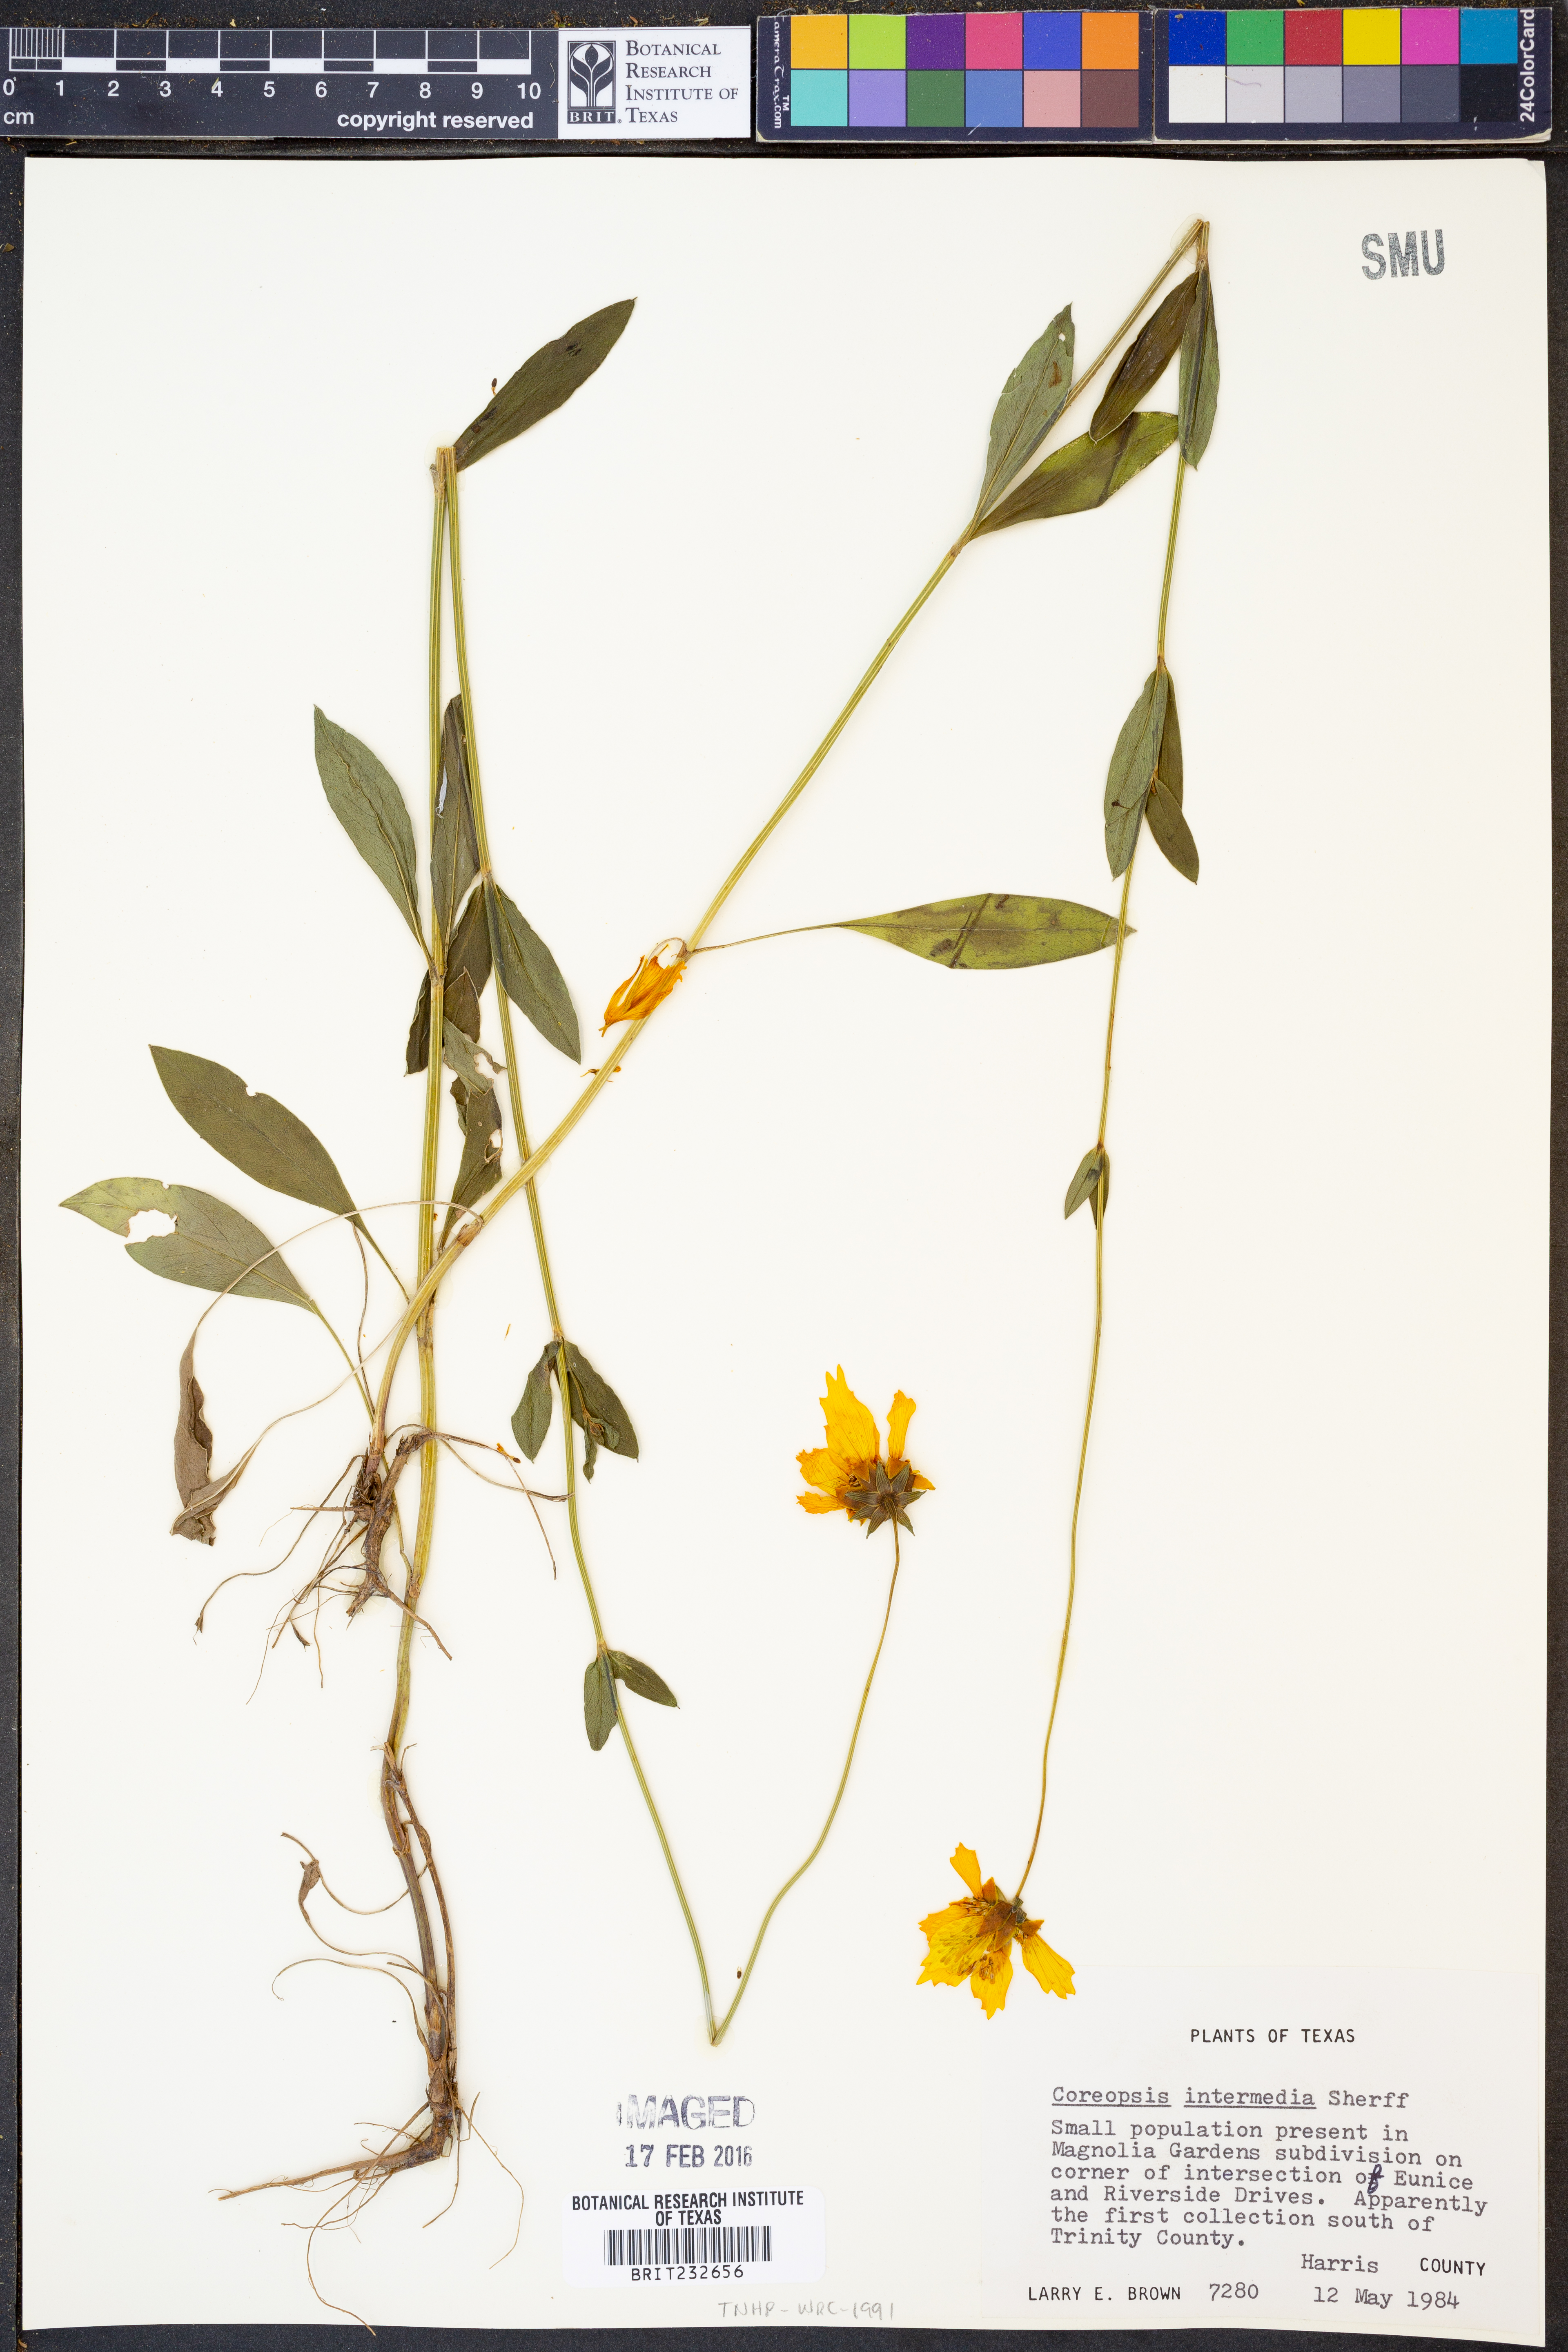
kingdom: Plantae
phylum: Tracheophyta
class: Magnoliopsida
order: Asterales
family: Asteraceae
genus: Coreopsis
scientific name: Coreopsis intermedia
